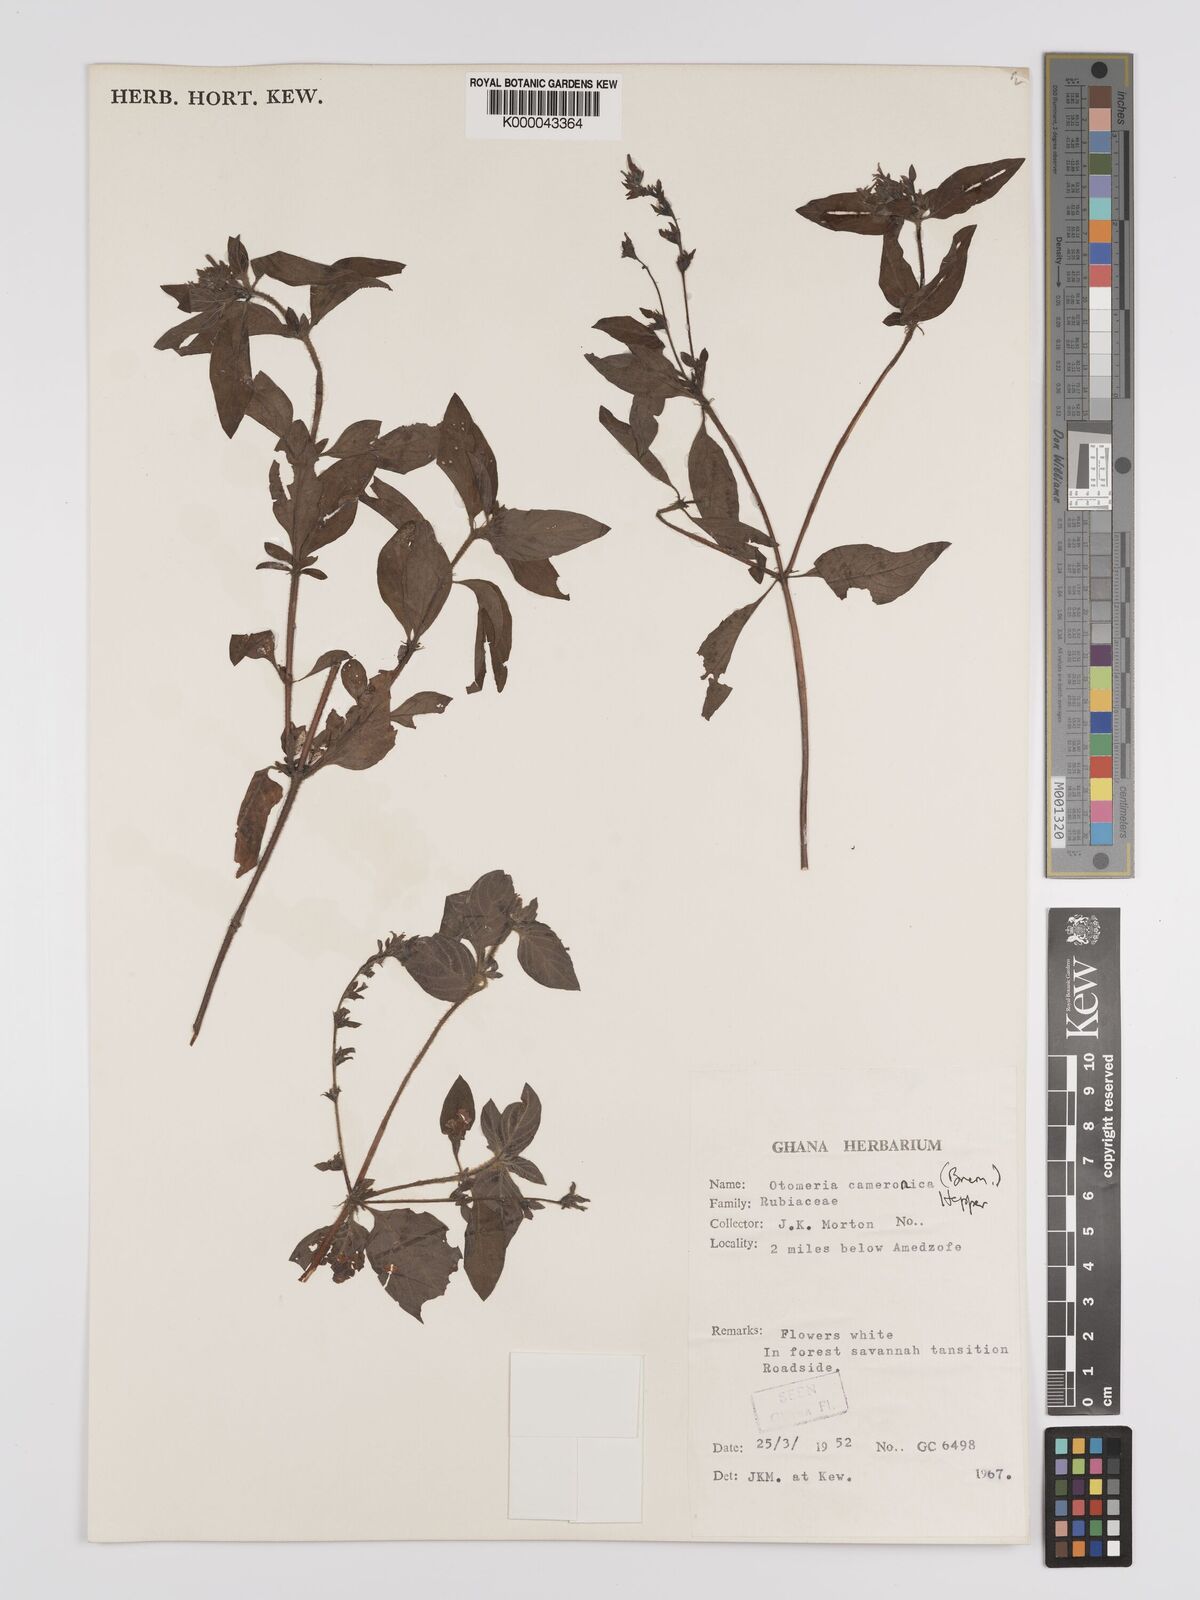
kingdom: Plantae
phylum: Tracheophyta
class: Magnoliopsida
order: Gentianales
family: Rubiaceae
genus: Otomeria
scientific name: Otomeria cameronica
